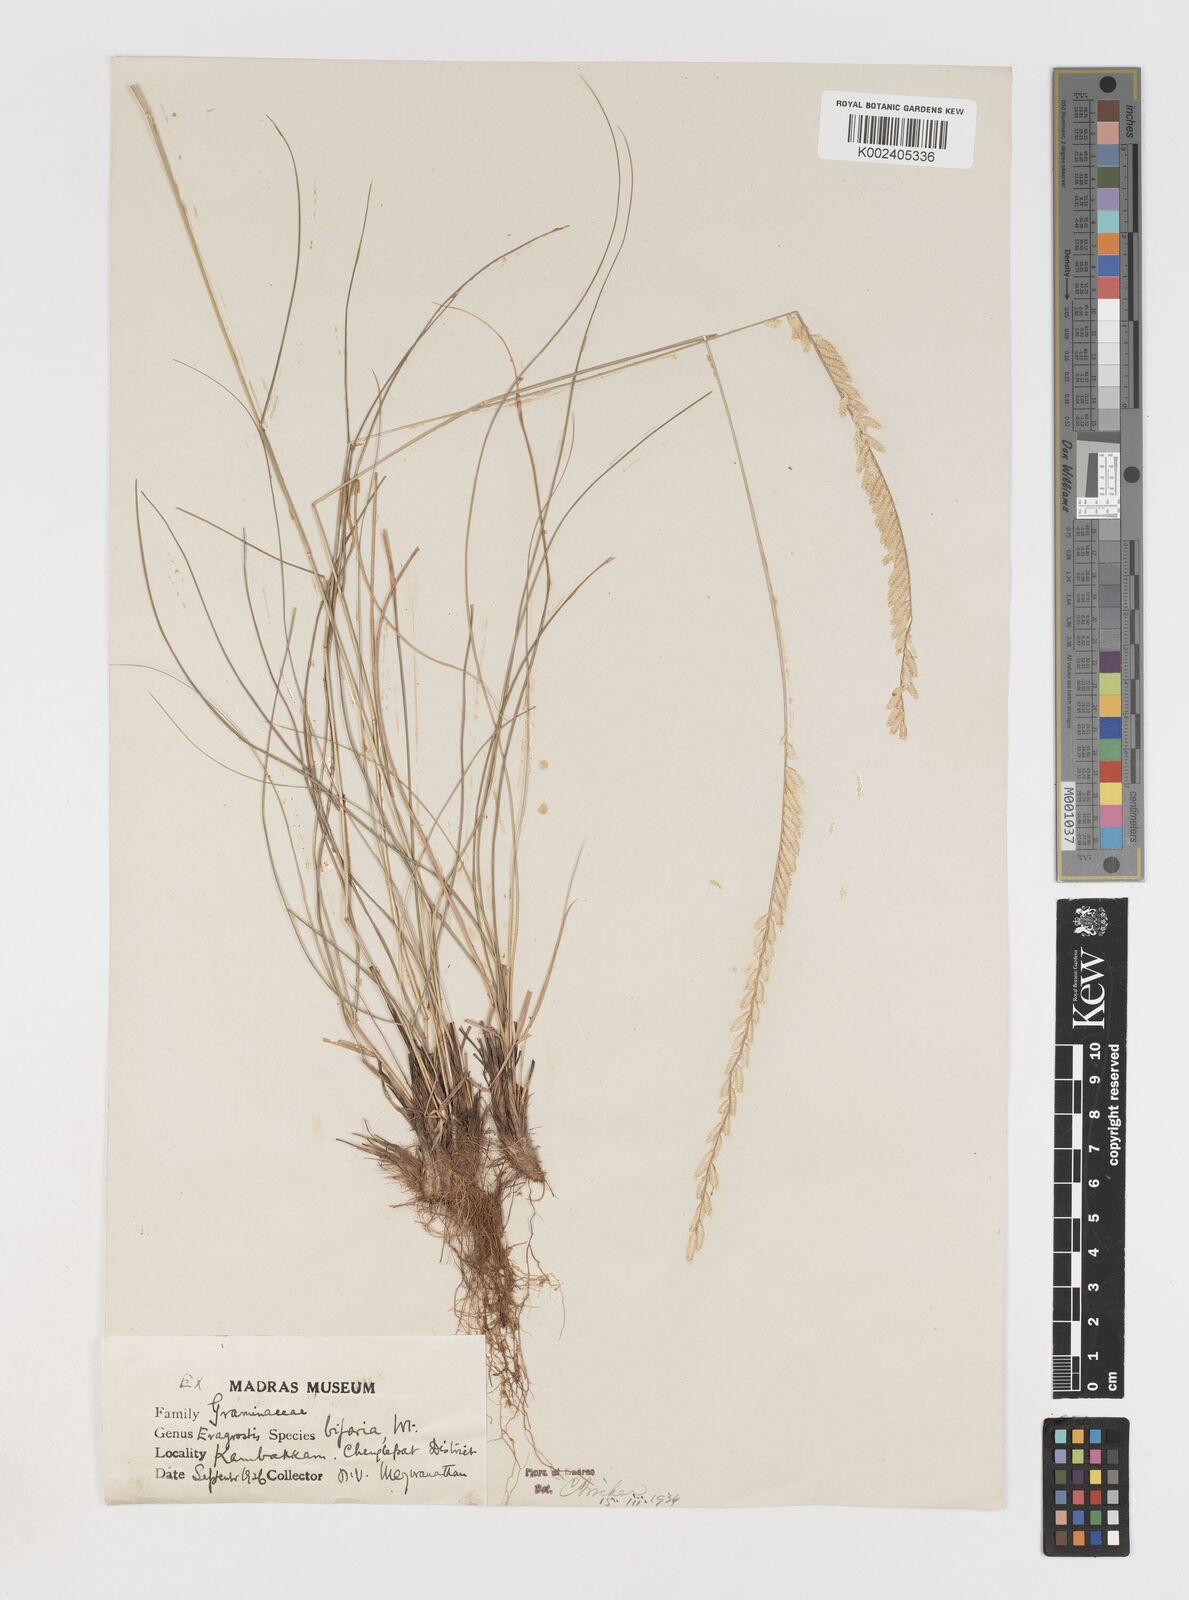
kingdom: Plantae
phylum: Tracheophyta
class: Liliopsida
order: Poales
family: Poaceae
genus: Eragrostiella
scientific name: Eragrostiella bifaria
